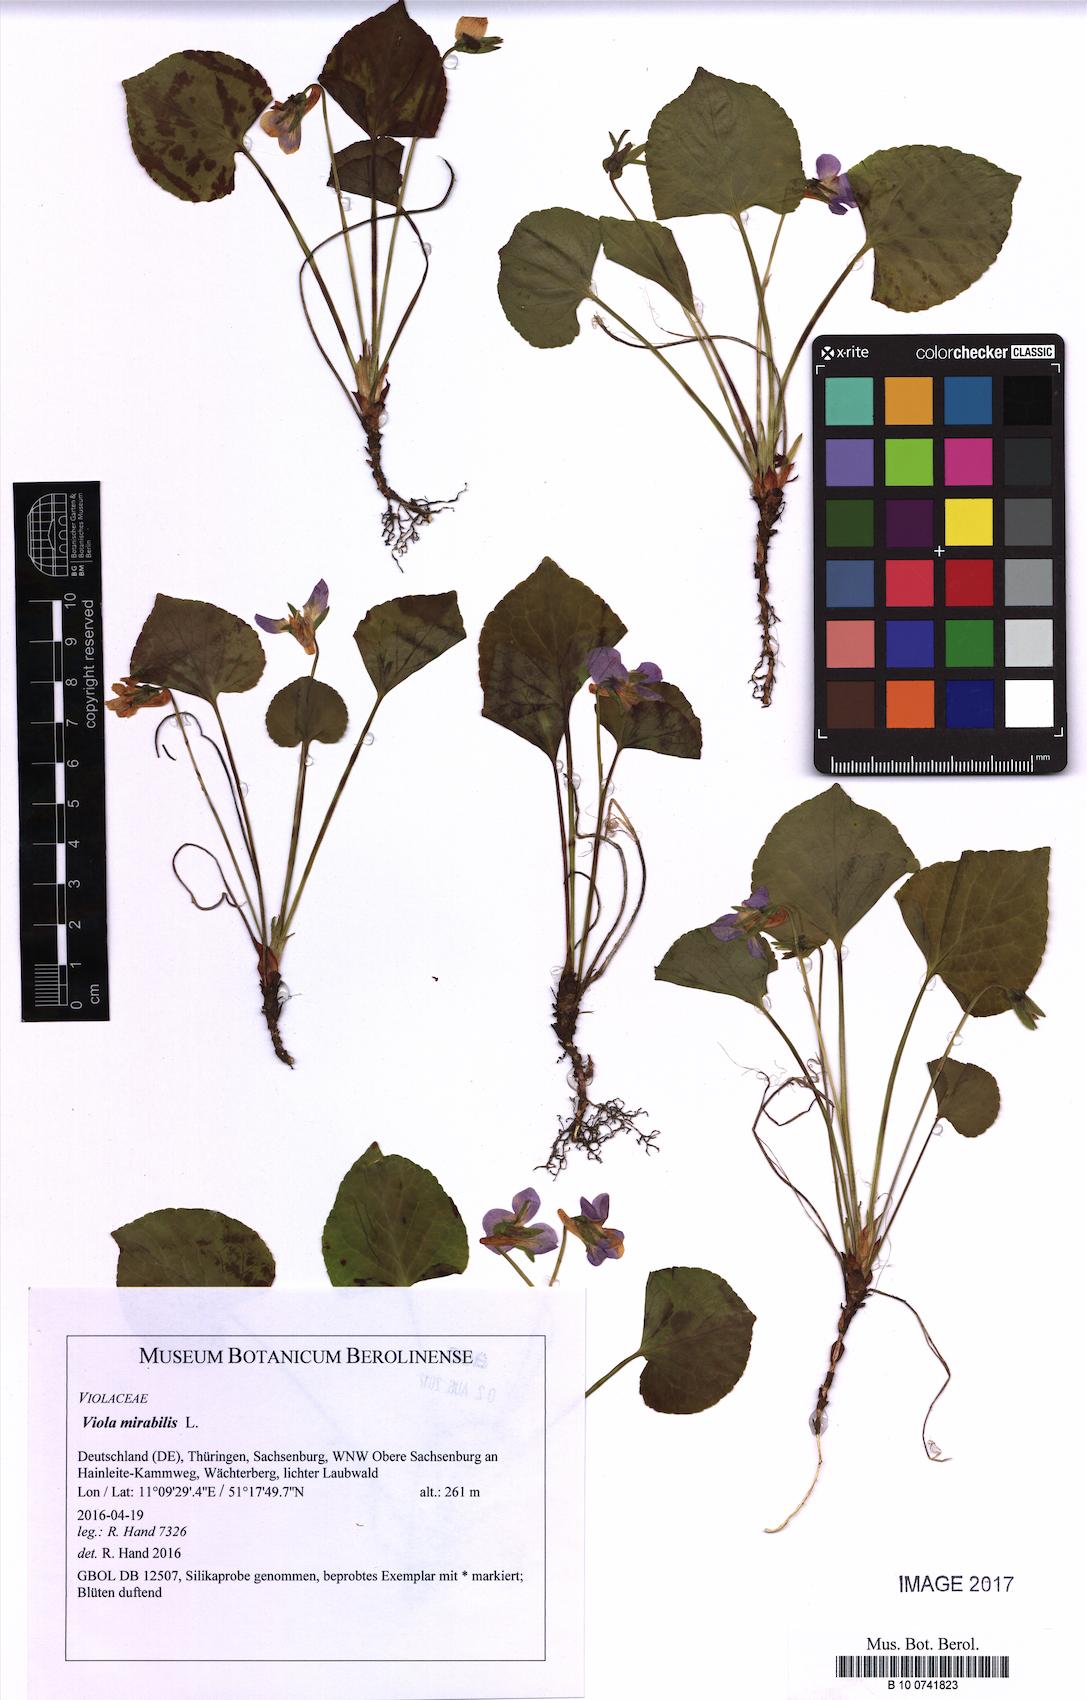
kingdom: Plantae
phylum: Tracheophyta
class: Magnoliopsida
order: Malpighiales
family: Violaceae
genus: Viola
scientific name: Viola mirabilis
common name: Wonder violet
